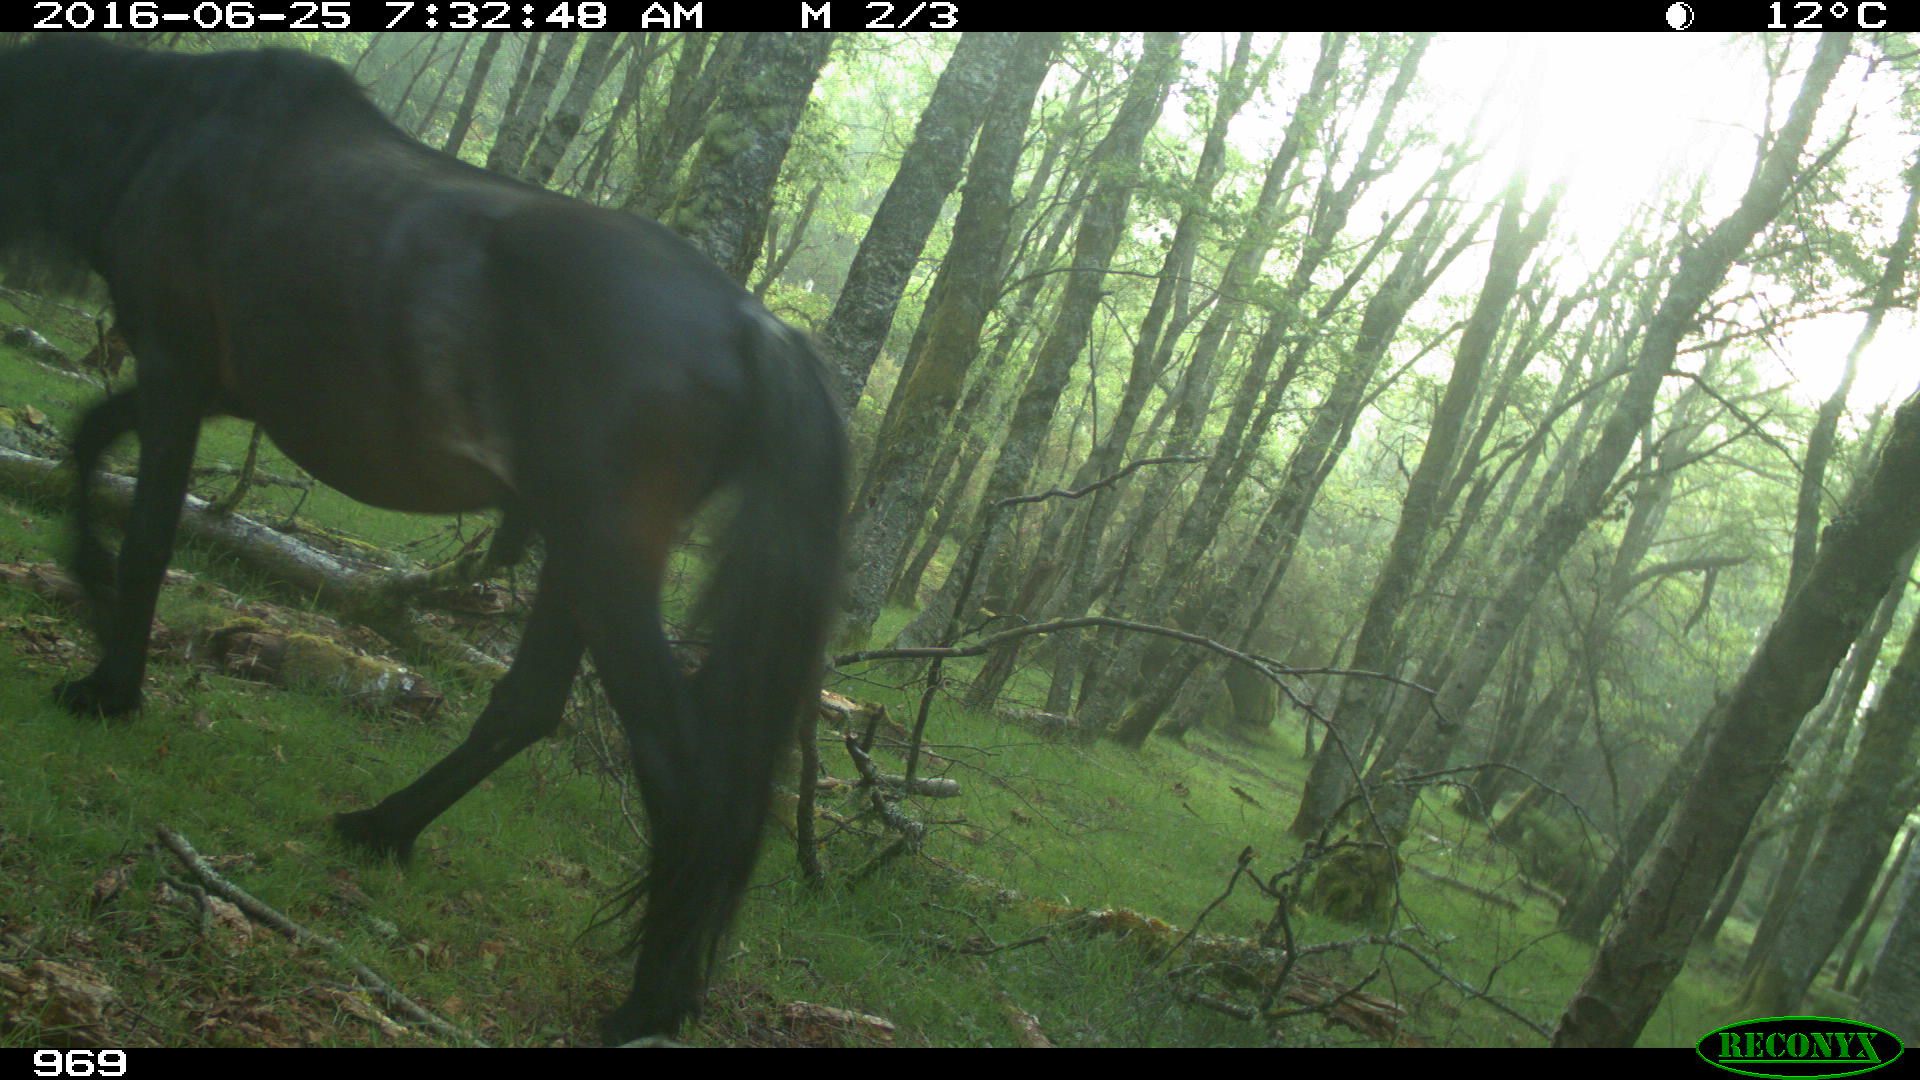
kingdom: Animalia
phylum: Chordata
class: Mammalia
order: Perissodactyla
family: Equidae
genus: Equus
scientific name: Equus caballus
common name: Horse
